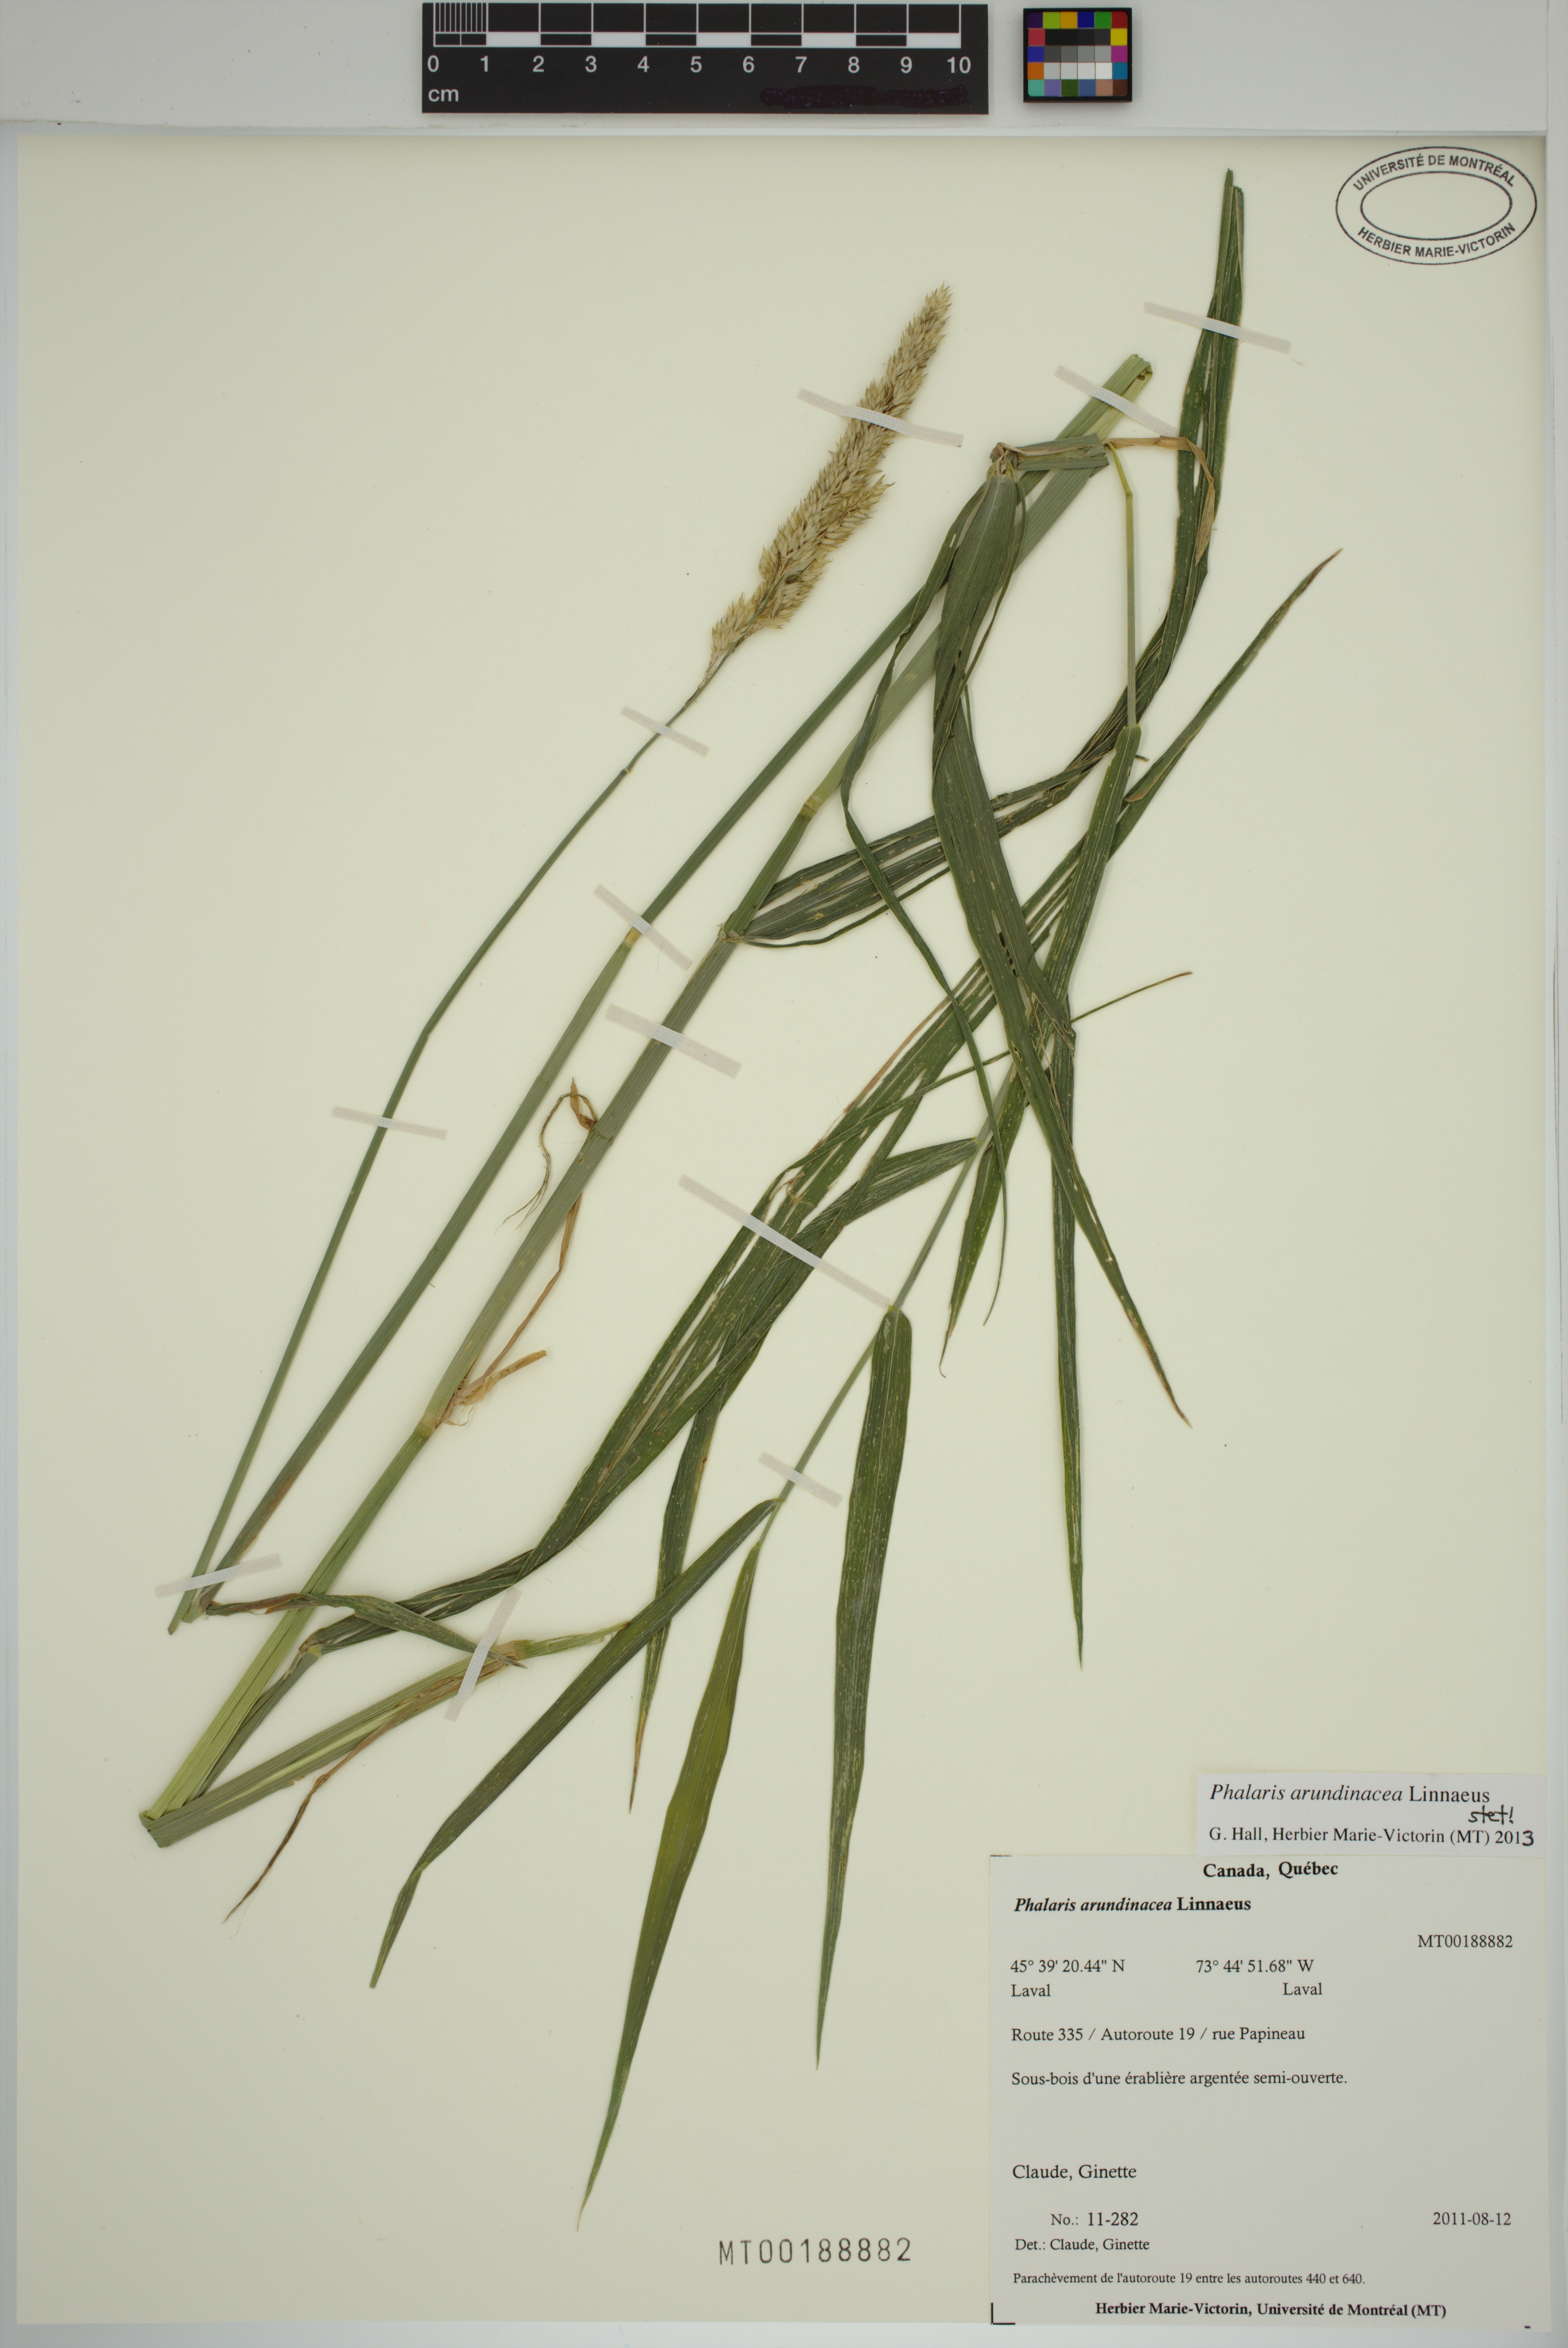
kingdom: Plantae
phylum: Tracheophyta
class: Liliopsida
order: Poales
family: Poaceae
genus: Phalaris
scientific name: Phalaris arundinacea
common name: Reed canary-grass
